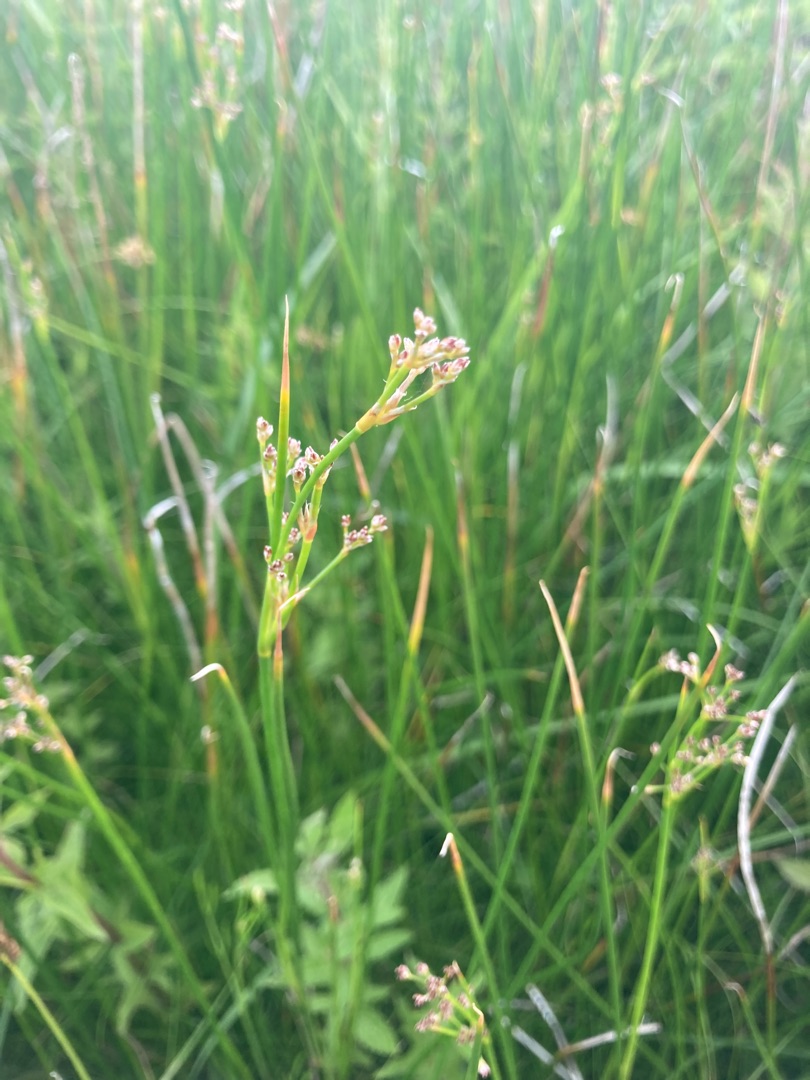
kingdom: Plantae
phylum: Tracheophyta
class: Liliopsida
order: Poales
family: Juncaceae
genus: Juncus
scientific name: Juncus subnodulosus
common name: Butblomstret siv
